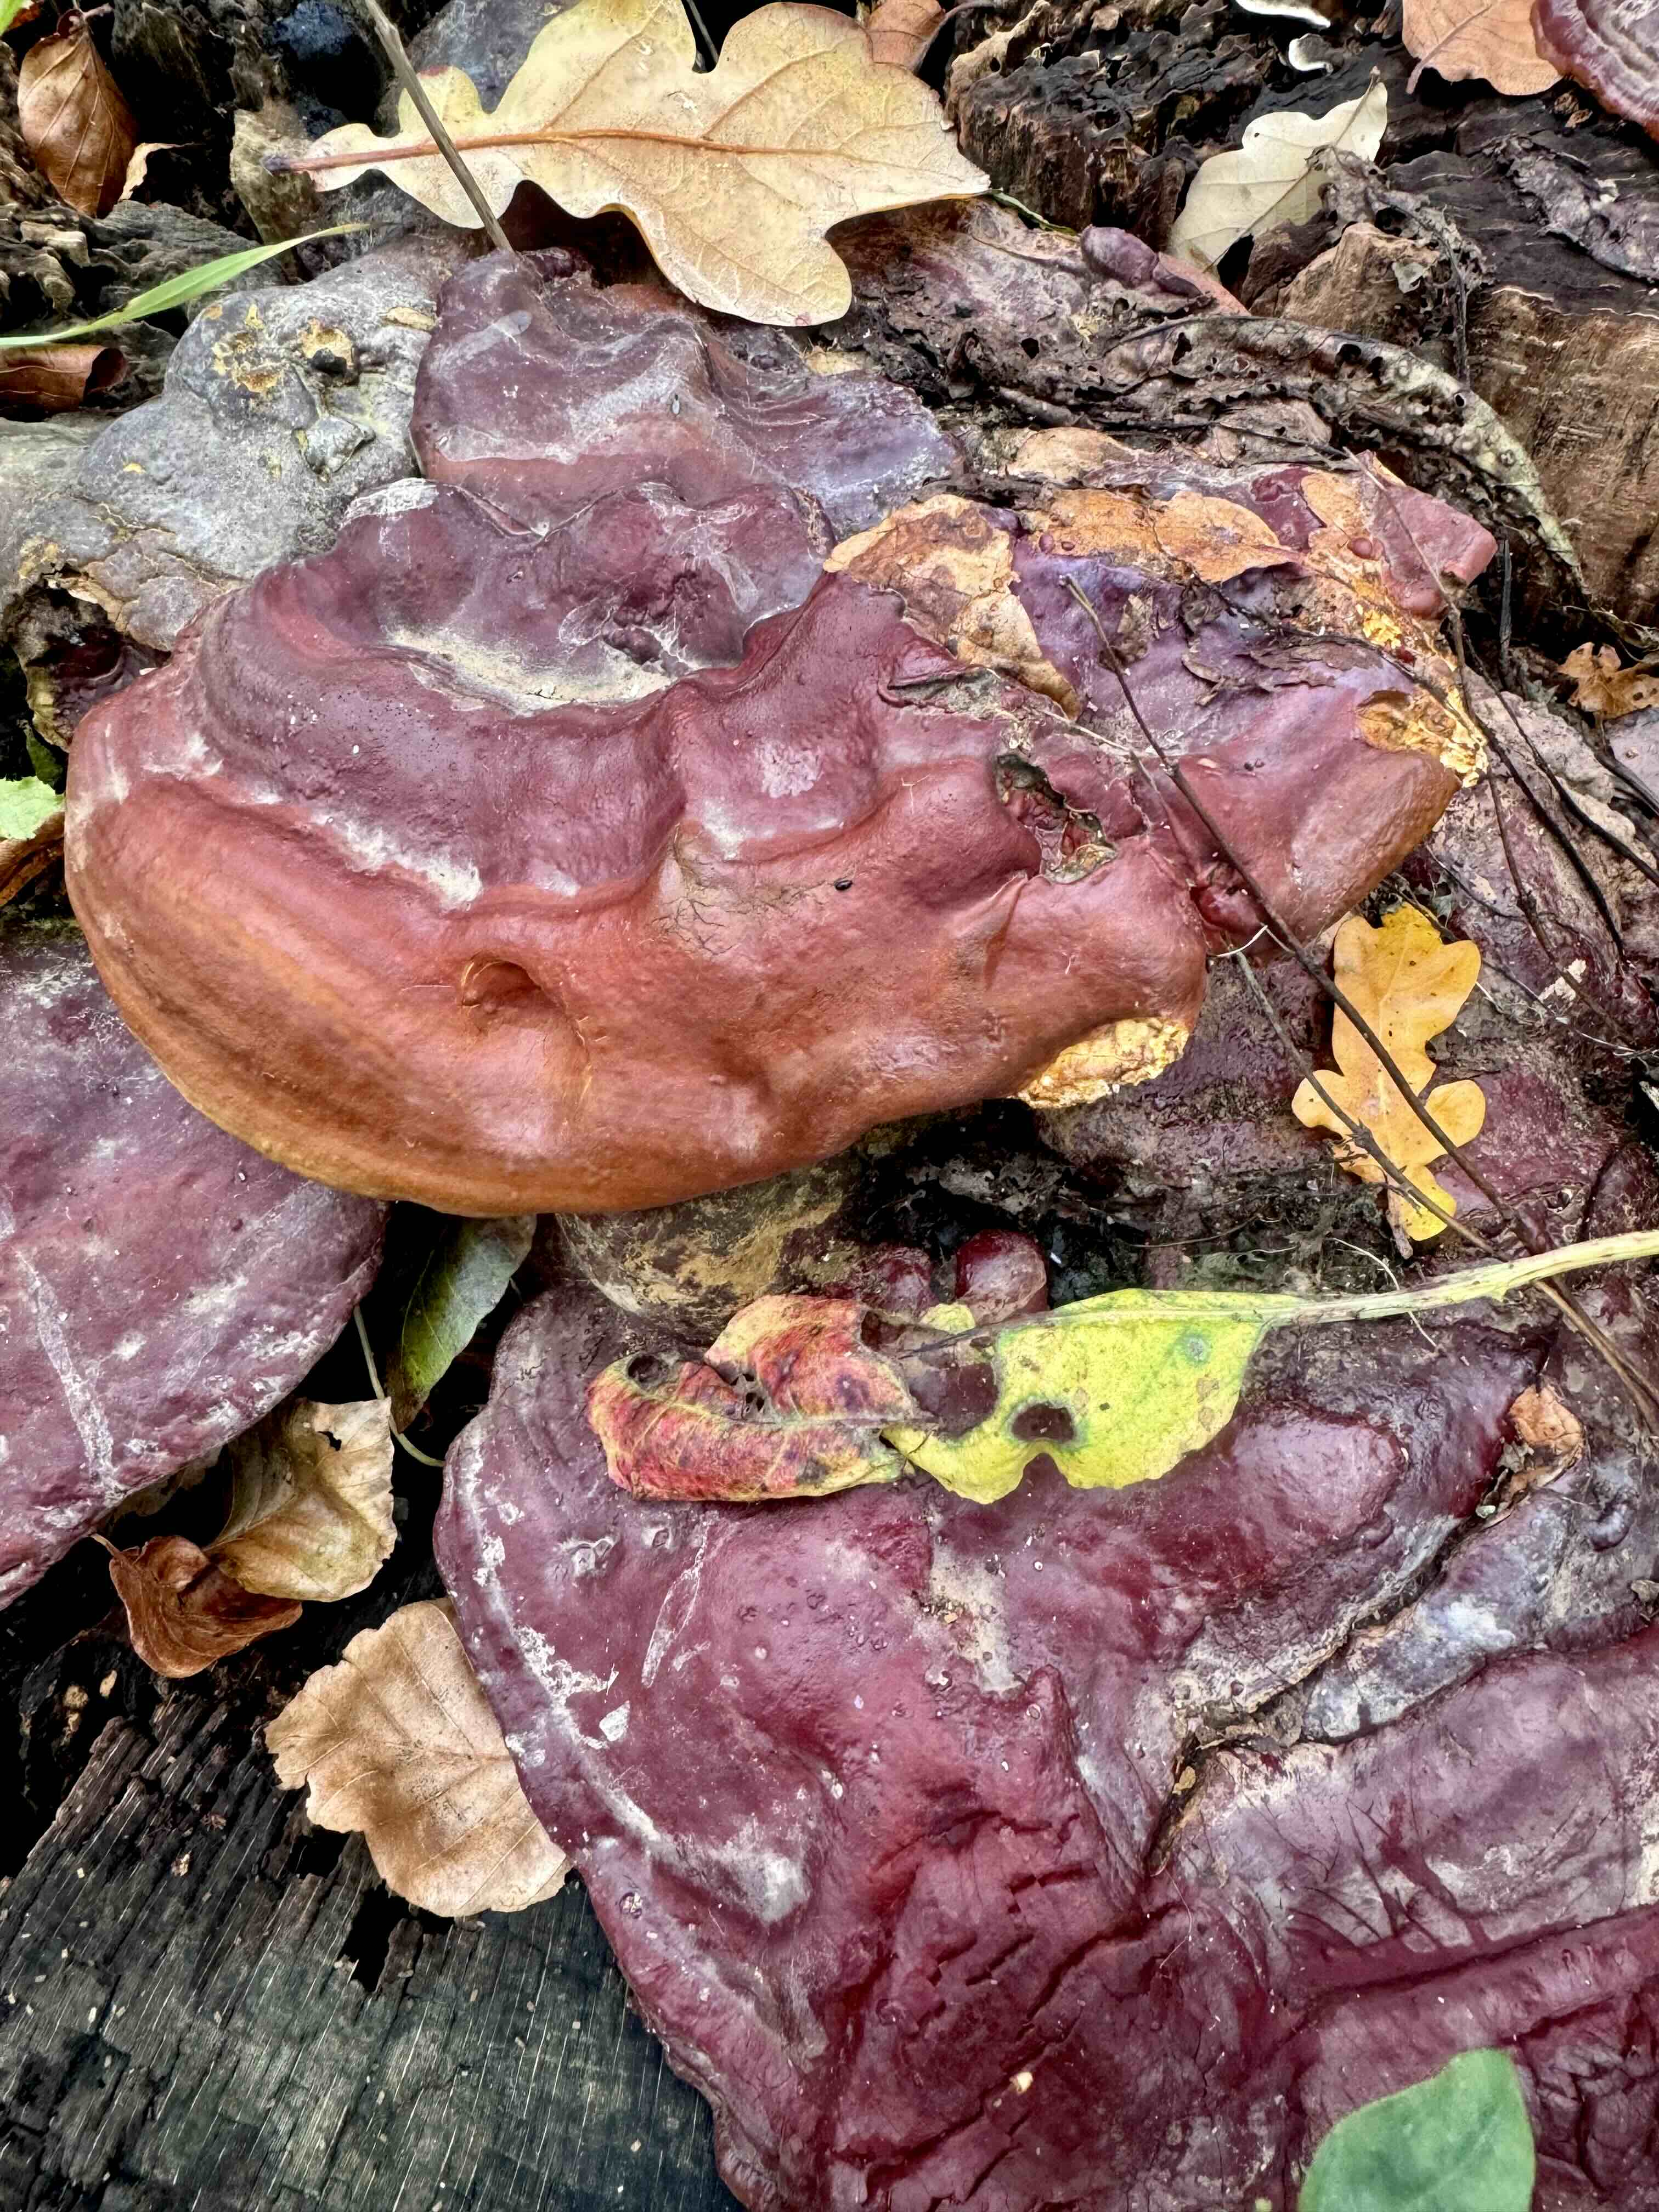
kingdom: Fungi
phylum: Basidiomycota
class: Agaricomycetes
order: Polyporales
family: Polyporaceae
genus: Ganoderma
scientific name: Ganoderma resinaceum
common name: gyldenbrun lakporesvamp
